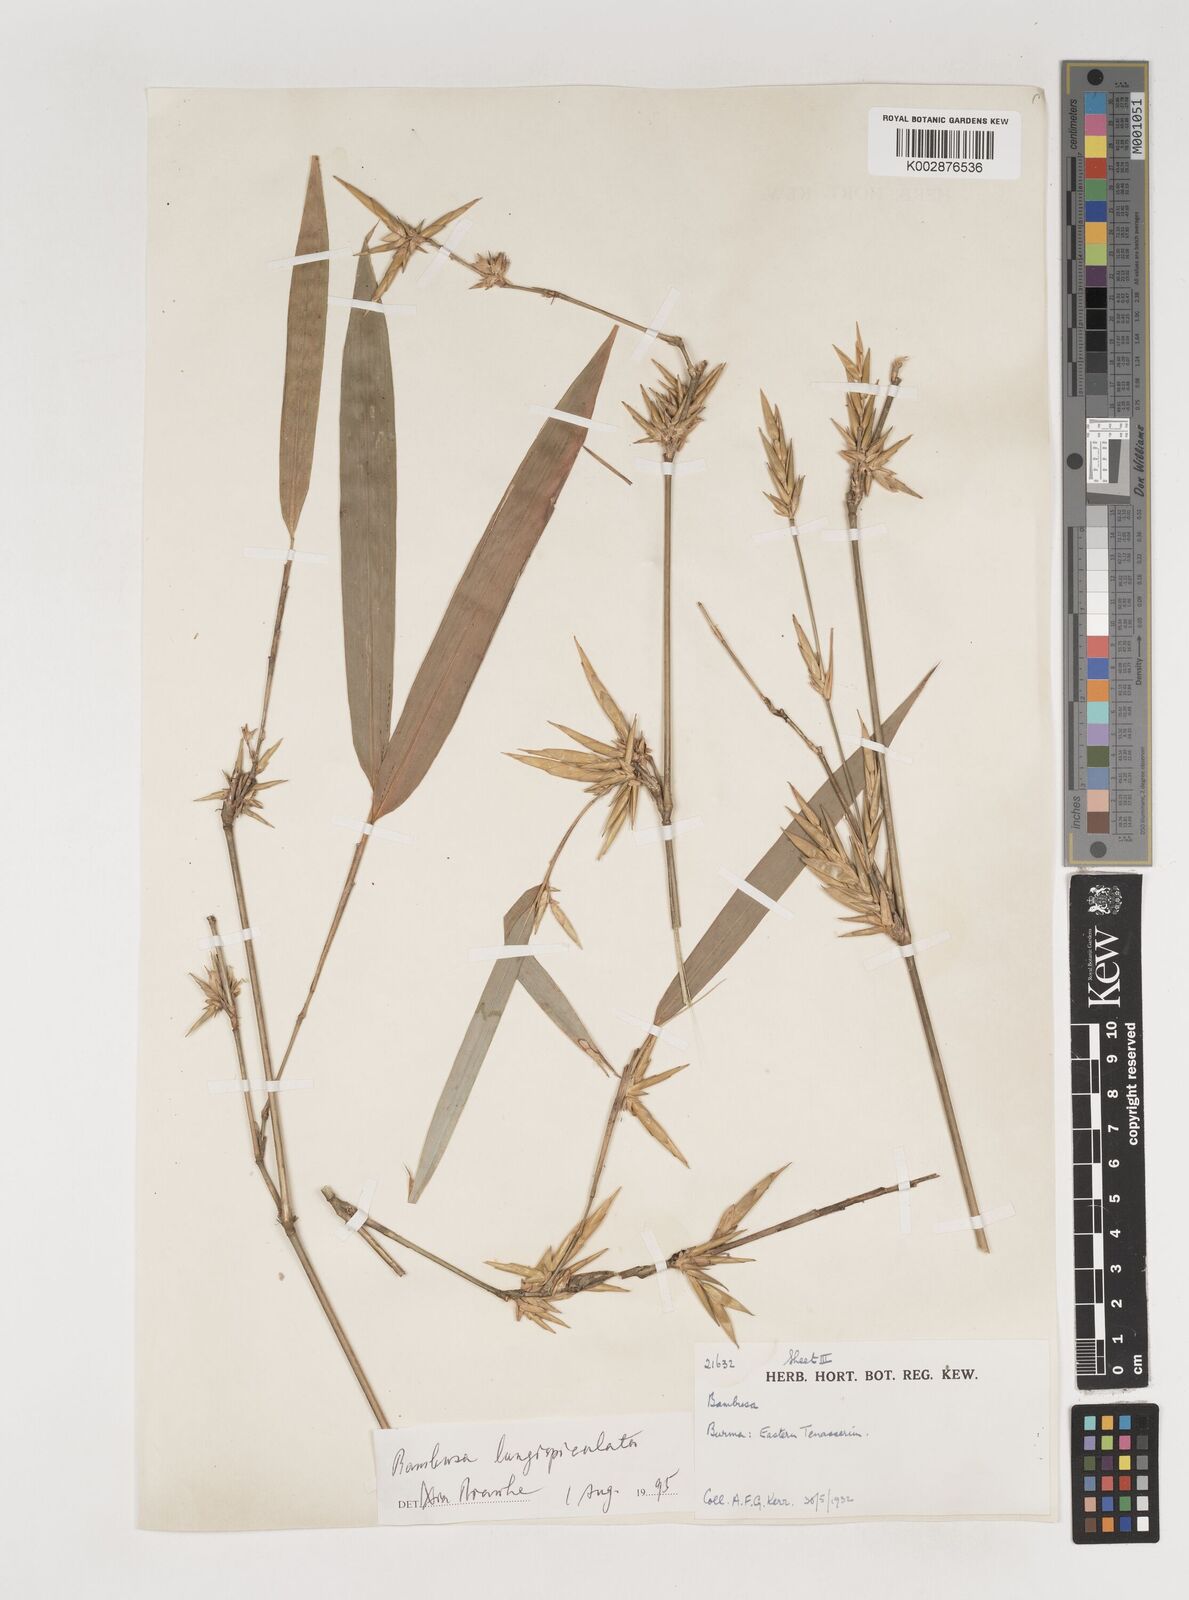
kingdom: Plantae
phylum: Tracheophyta
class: Liliopsida
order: Poales
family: Poaceae
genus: Bambusa
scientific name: Bambusa longispiculata
